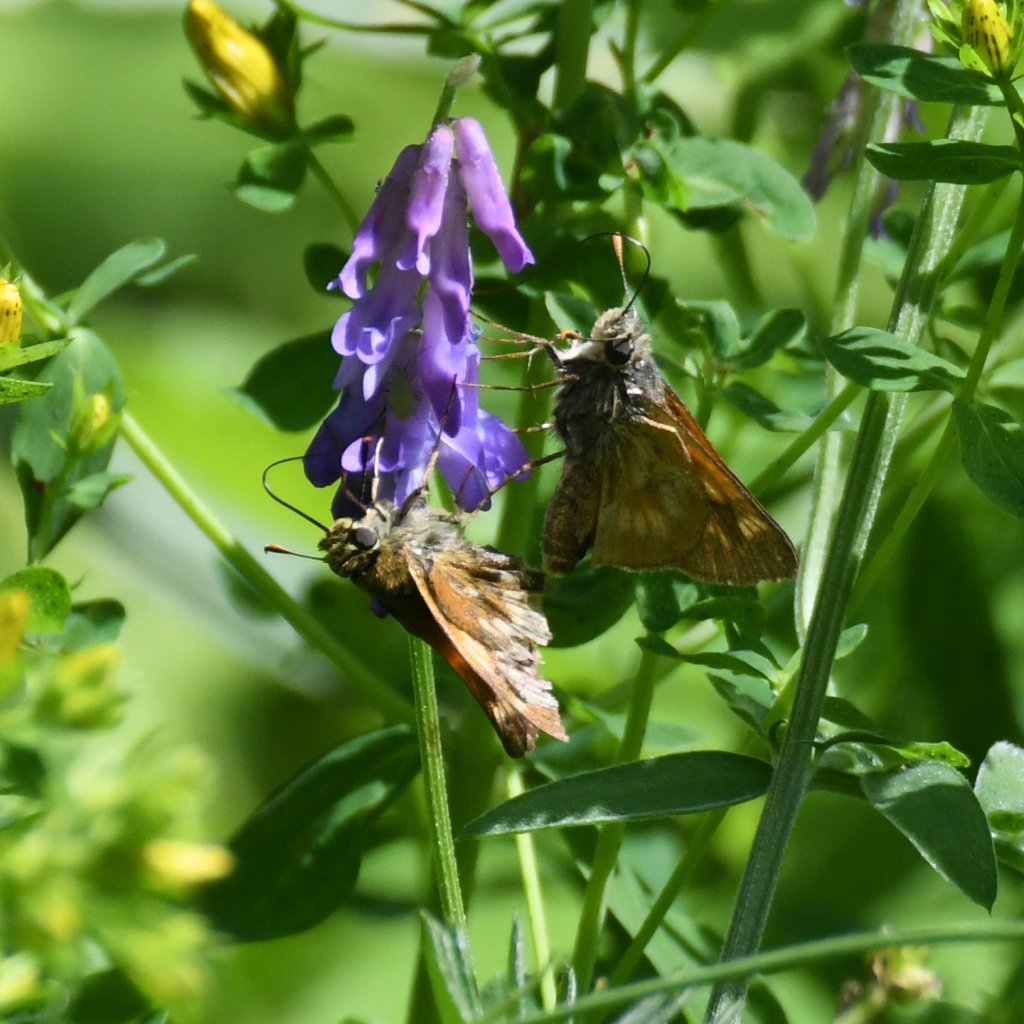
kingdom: Animalia
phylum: Arthropoda
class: Insecta
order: Lepidoptera
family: Hesperiidae
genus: Polites
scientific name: Polites
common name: Long Dash Skipper
